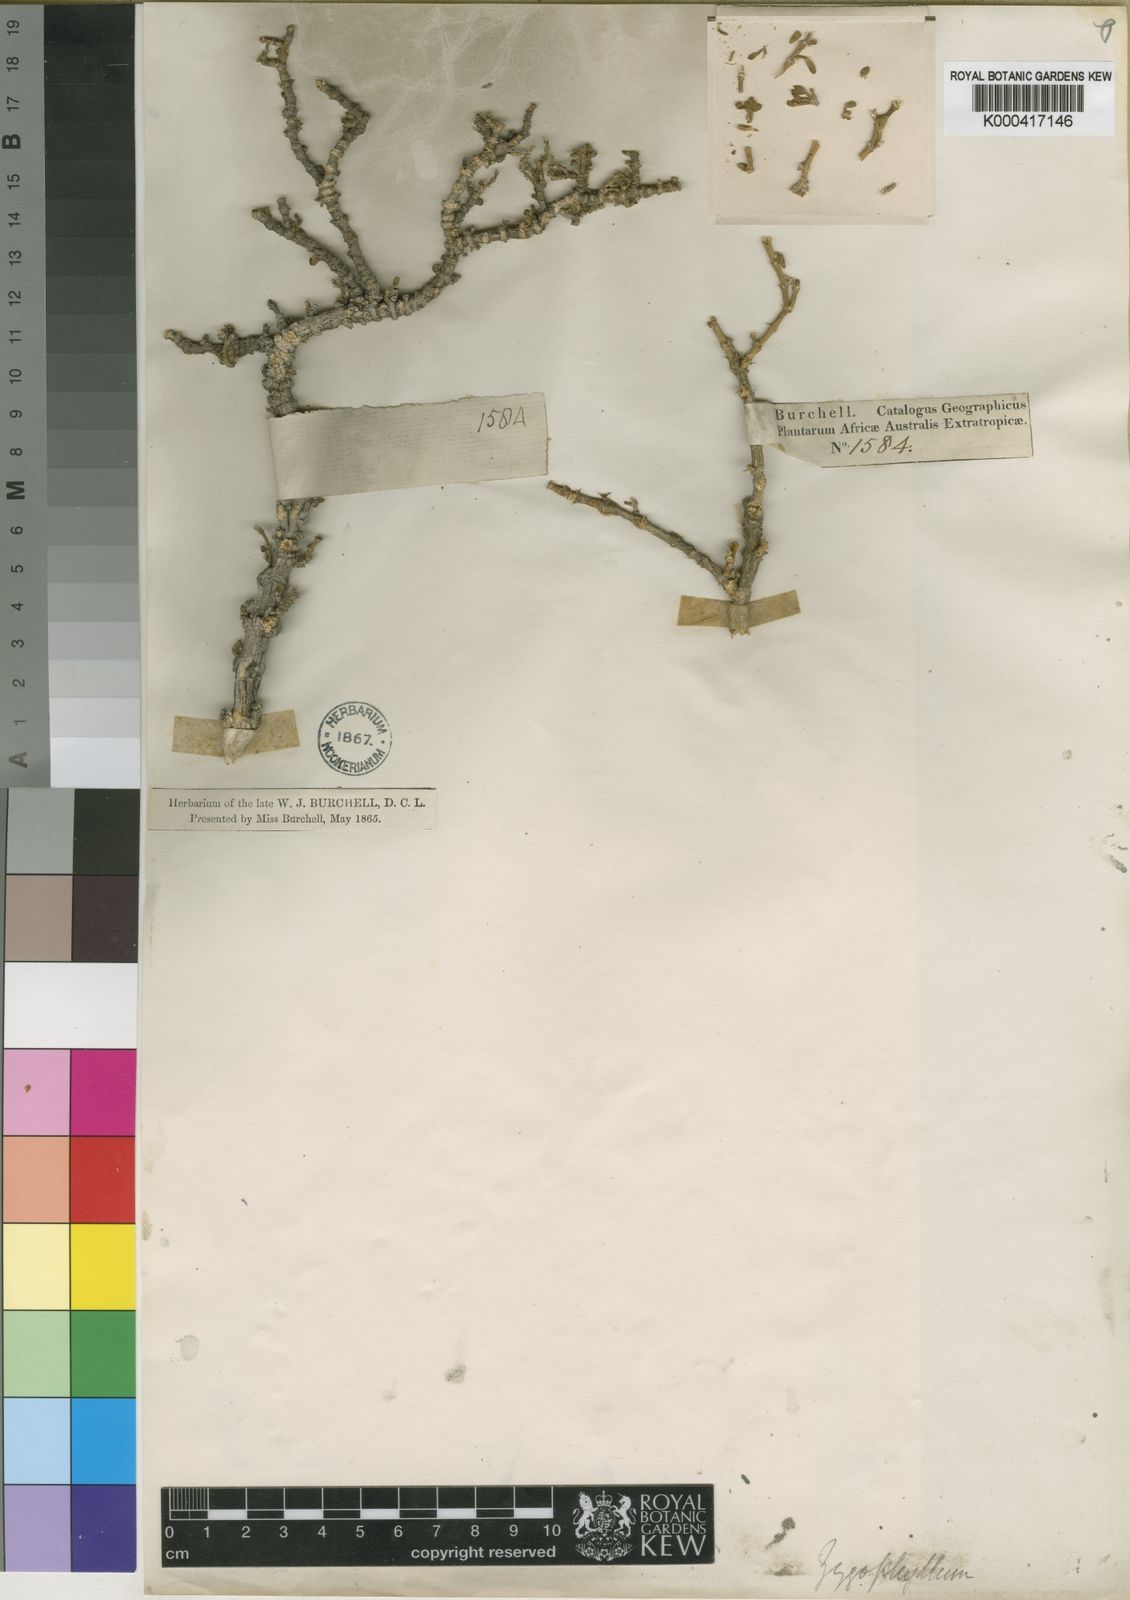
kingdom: Plantae
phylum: Tracheophyta
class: Magnoliopsida
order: Zygophyllales
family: Zygophyllaceae
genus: Zygophyllum
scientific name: Zygophyllum
